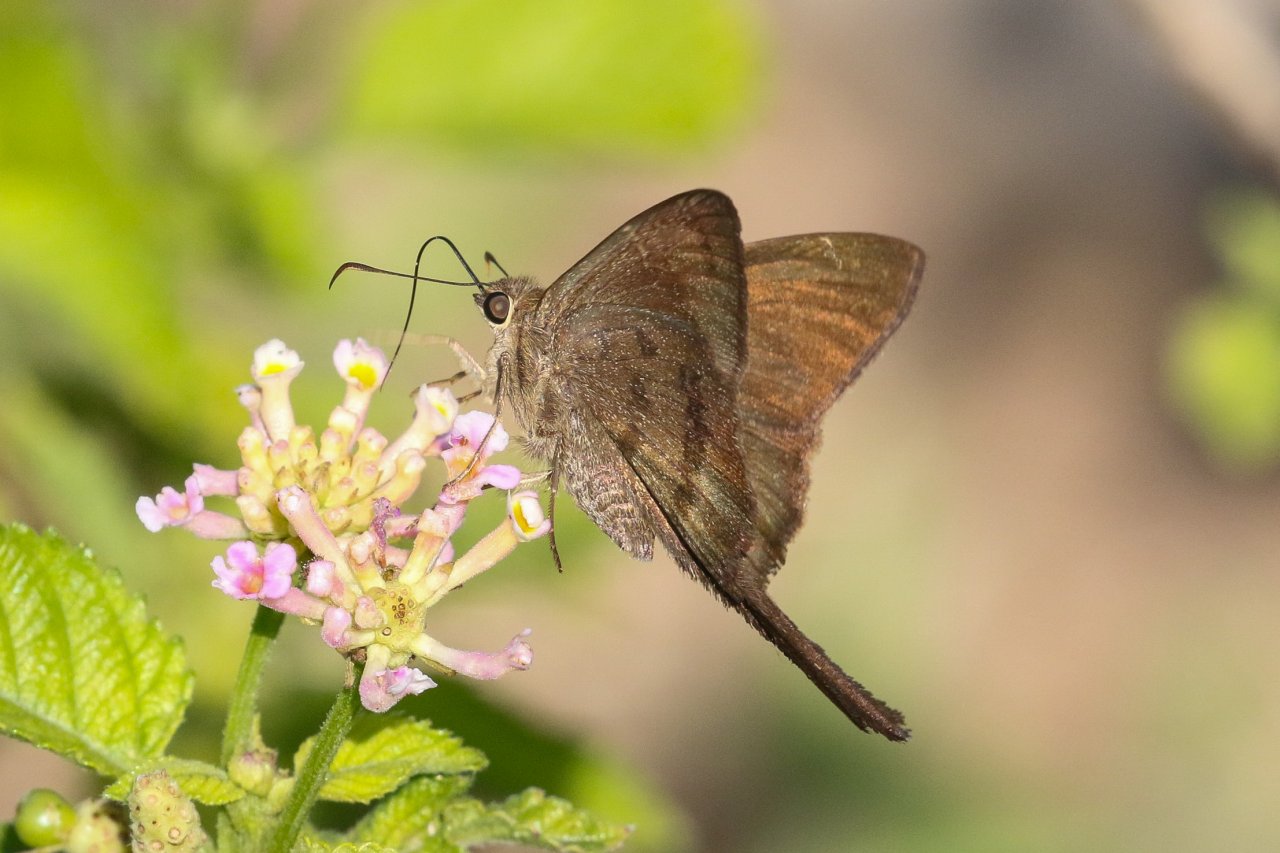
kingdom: Animalia
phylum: Arthropoda
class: Insecta
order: Lepidoptera
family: Hesperiidae
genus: Urbanus
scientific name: Urbanus procne
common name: Brown Longtail
